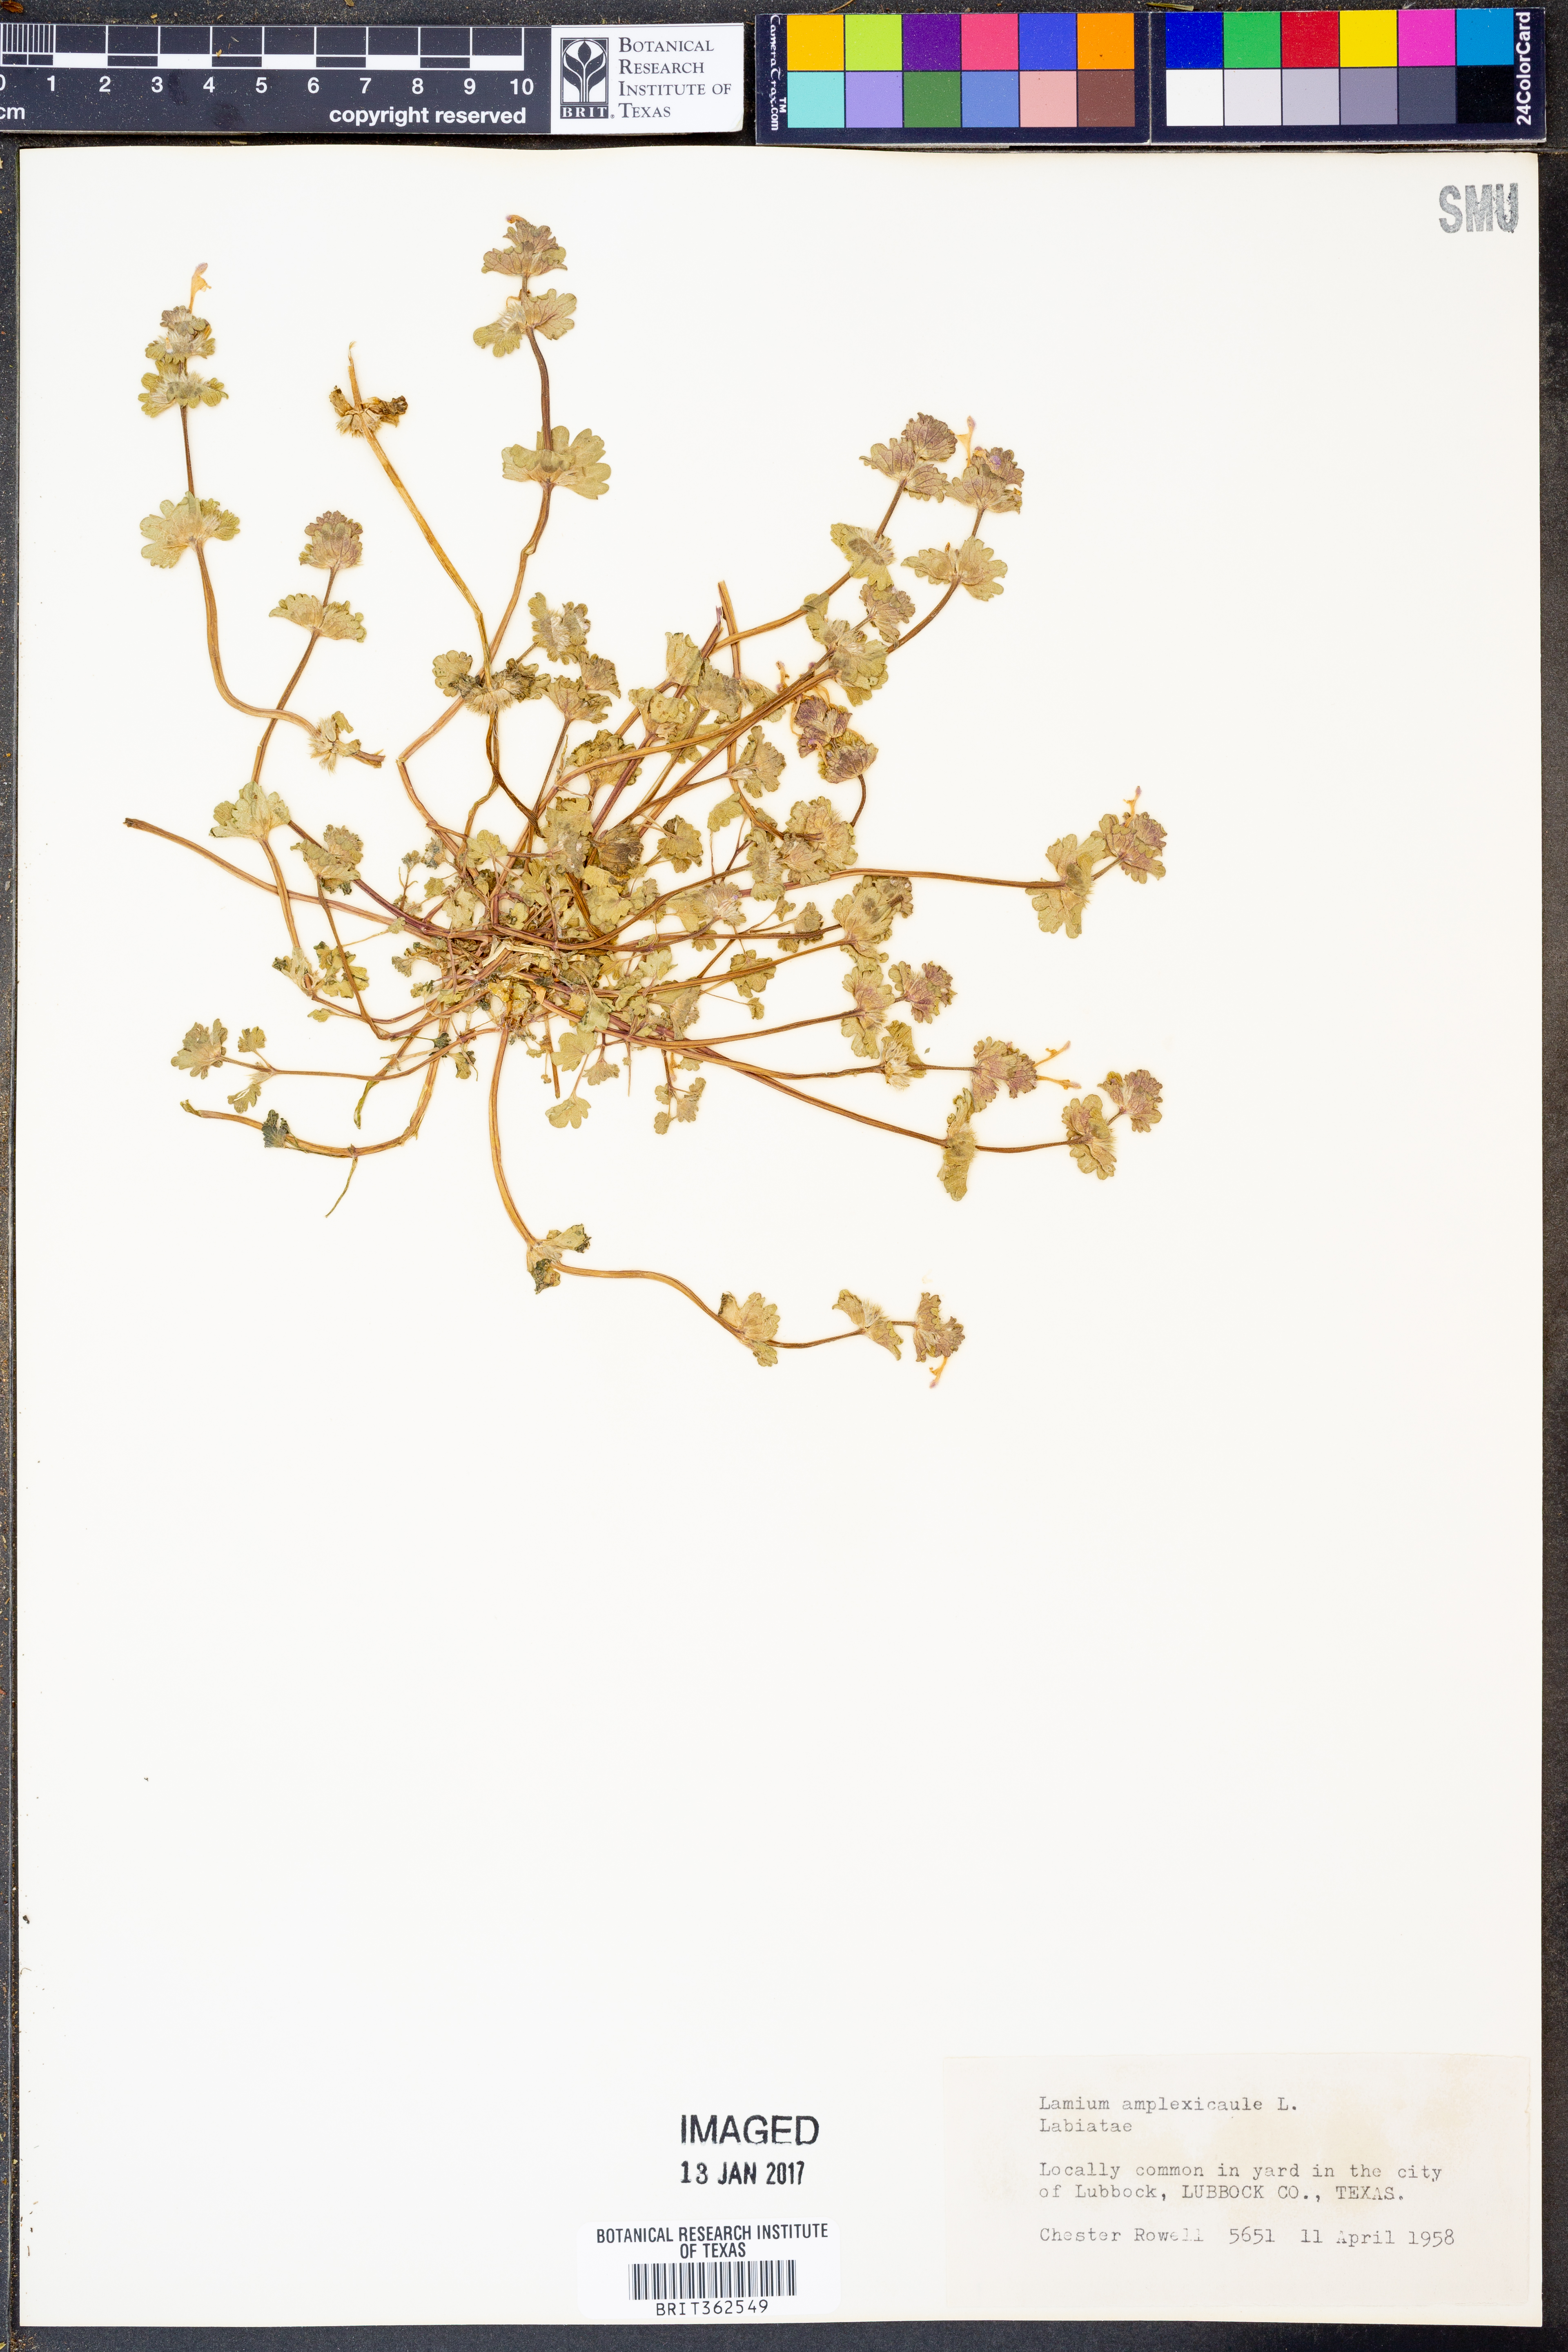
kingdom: Plantae
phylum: Tracheophyta
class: Magnoliopsida
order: Lamiales
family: Lamiaceae
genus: Lamium
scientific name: Lamium amplexicaule
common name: Henbit dead-nettle
